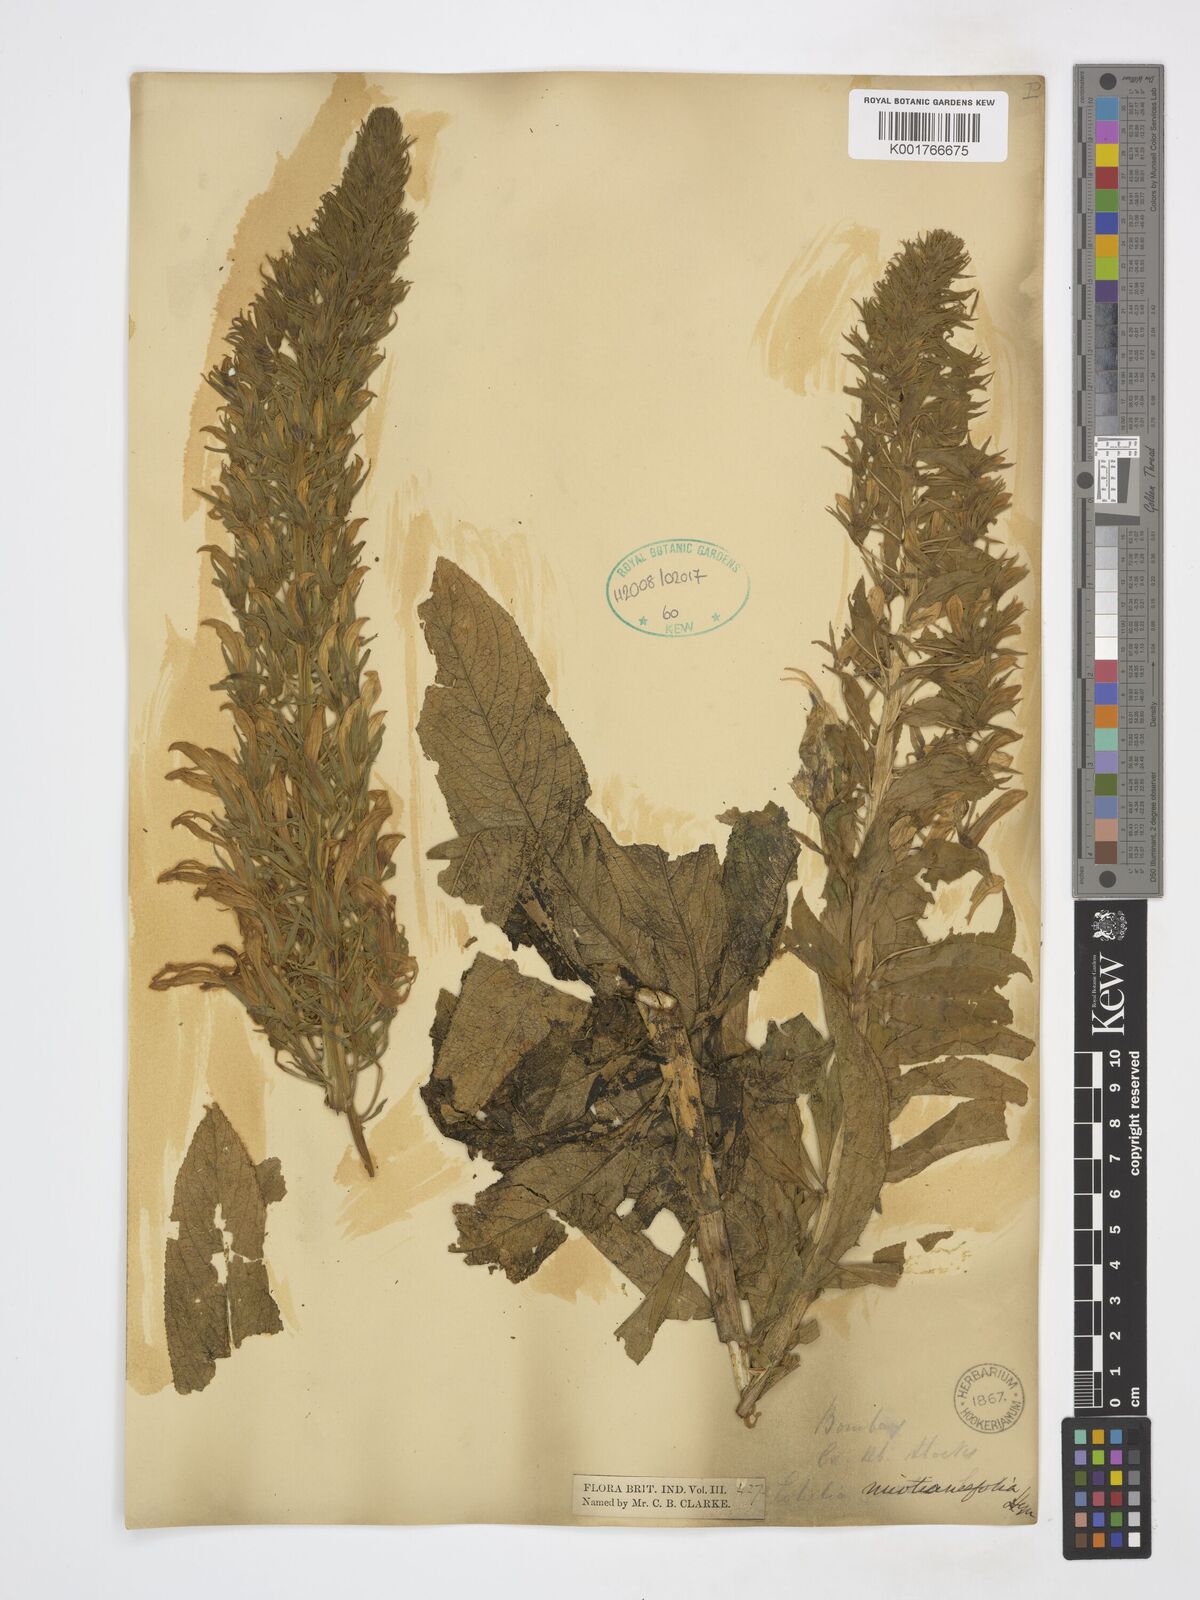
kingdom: Plantae
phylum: Tracheophyta
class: Magnoliopsida
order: Asterales
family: Campanulaceae
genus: Lobelia
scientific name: Lobelia nicotianifolia
